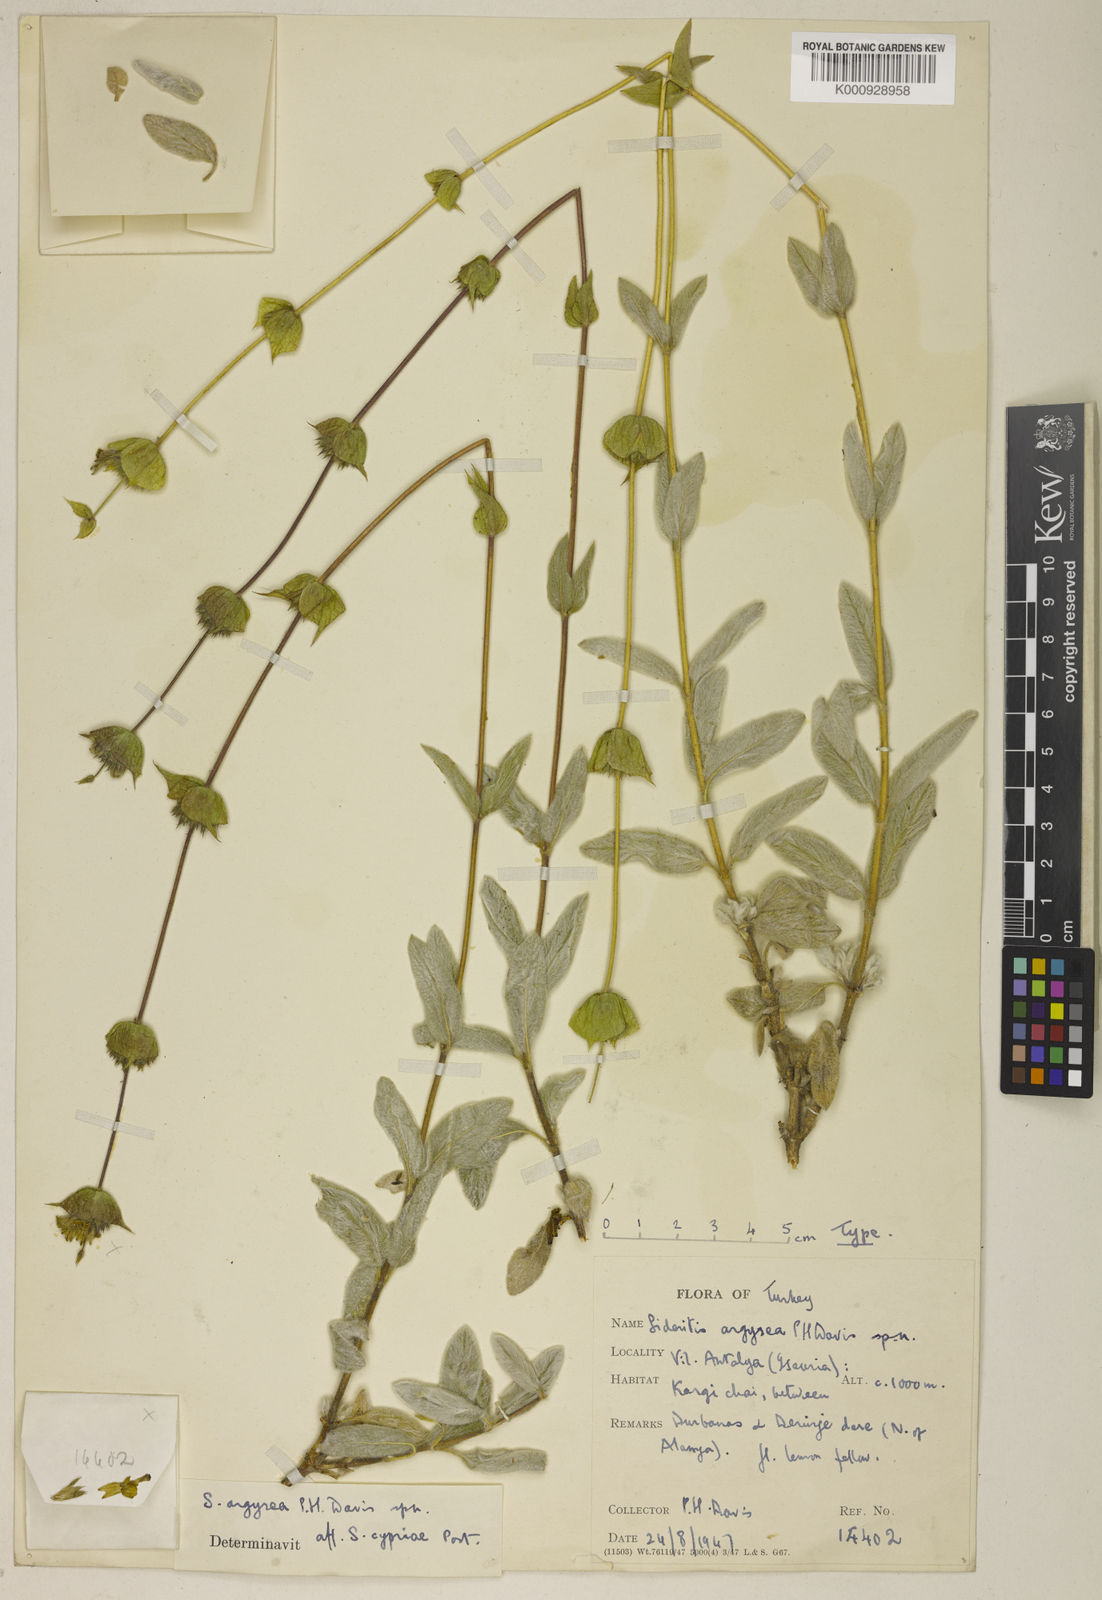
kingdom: Plantae
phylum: Tracheophyta
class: Magnoliopsida
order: Lamiales
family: Lamiaceae
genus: Sideritis
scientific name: Sideritis argyrea
